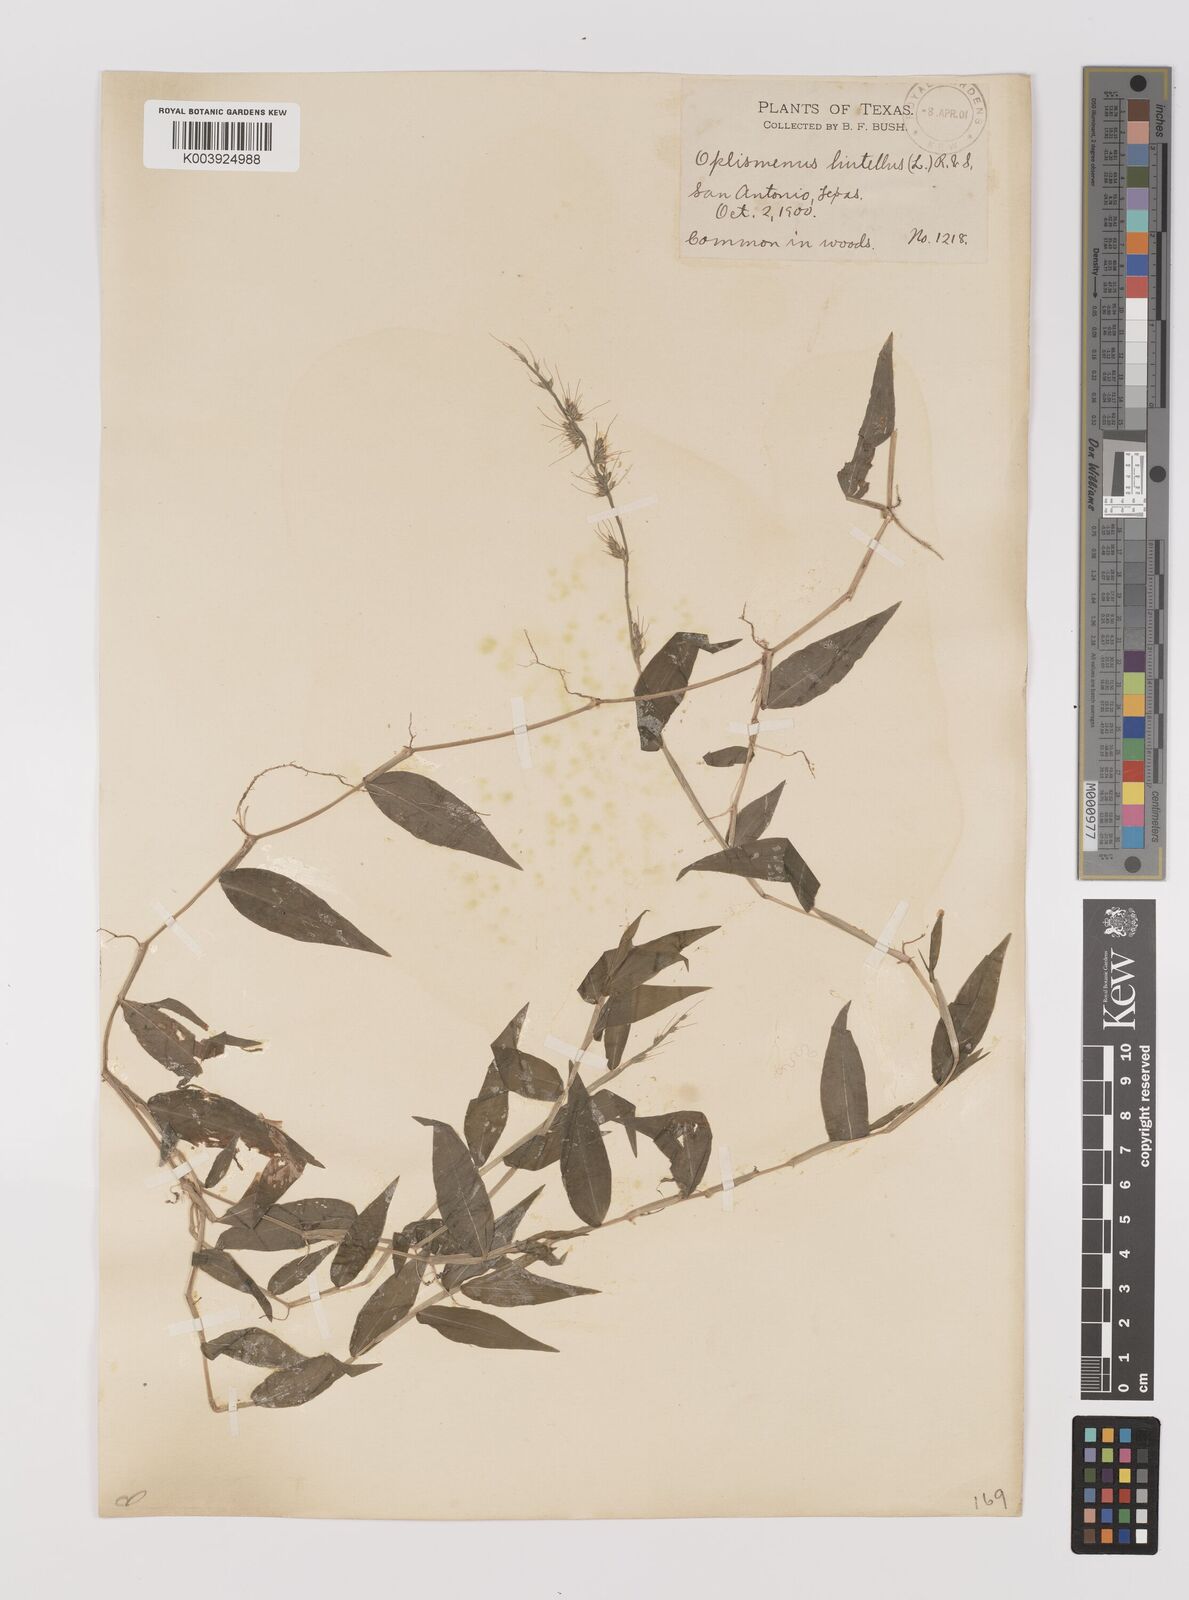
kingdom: Plantae
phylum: Tracheophyta
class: Liliopsida
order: Poales
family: Poaceae
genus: Oplismenus
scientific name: Oplismenus hirtellus
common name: Basketgrass
